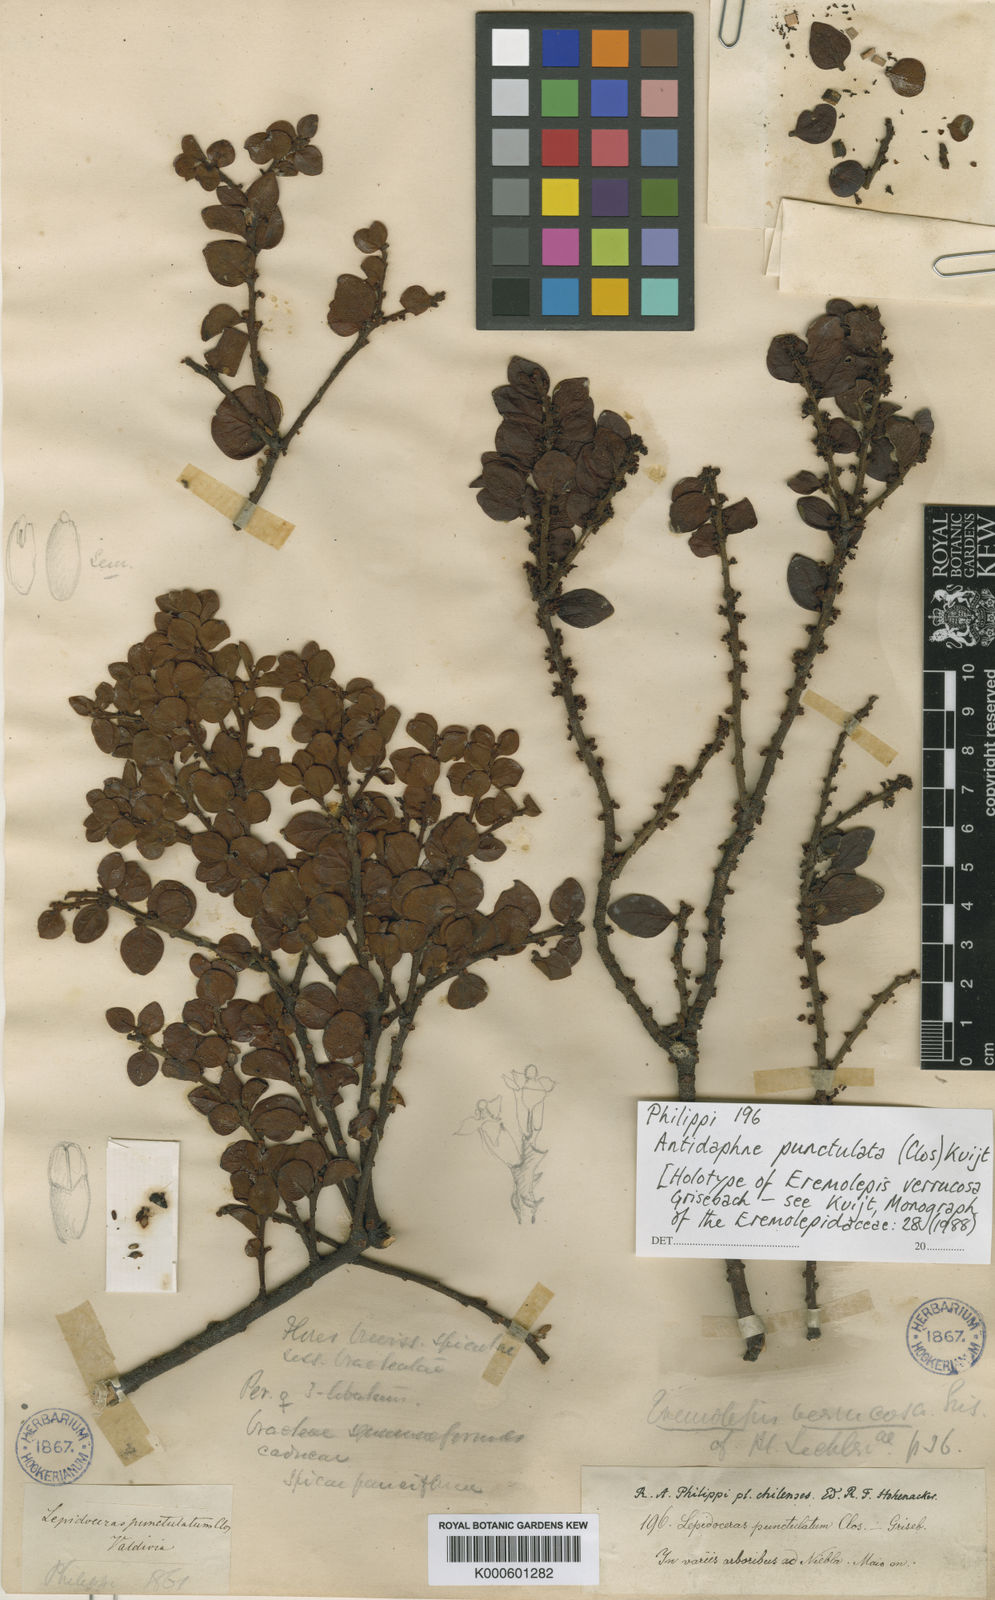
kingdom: Plantae
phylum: Tracheophyta
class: Magnoliopsida
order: Santalales
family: Santalaceae
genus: Antidaphne
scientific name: Antidaphne punctulata
